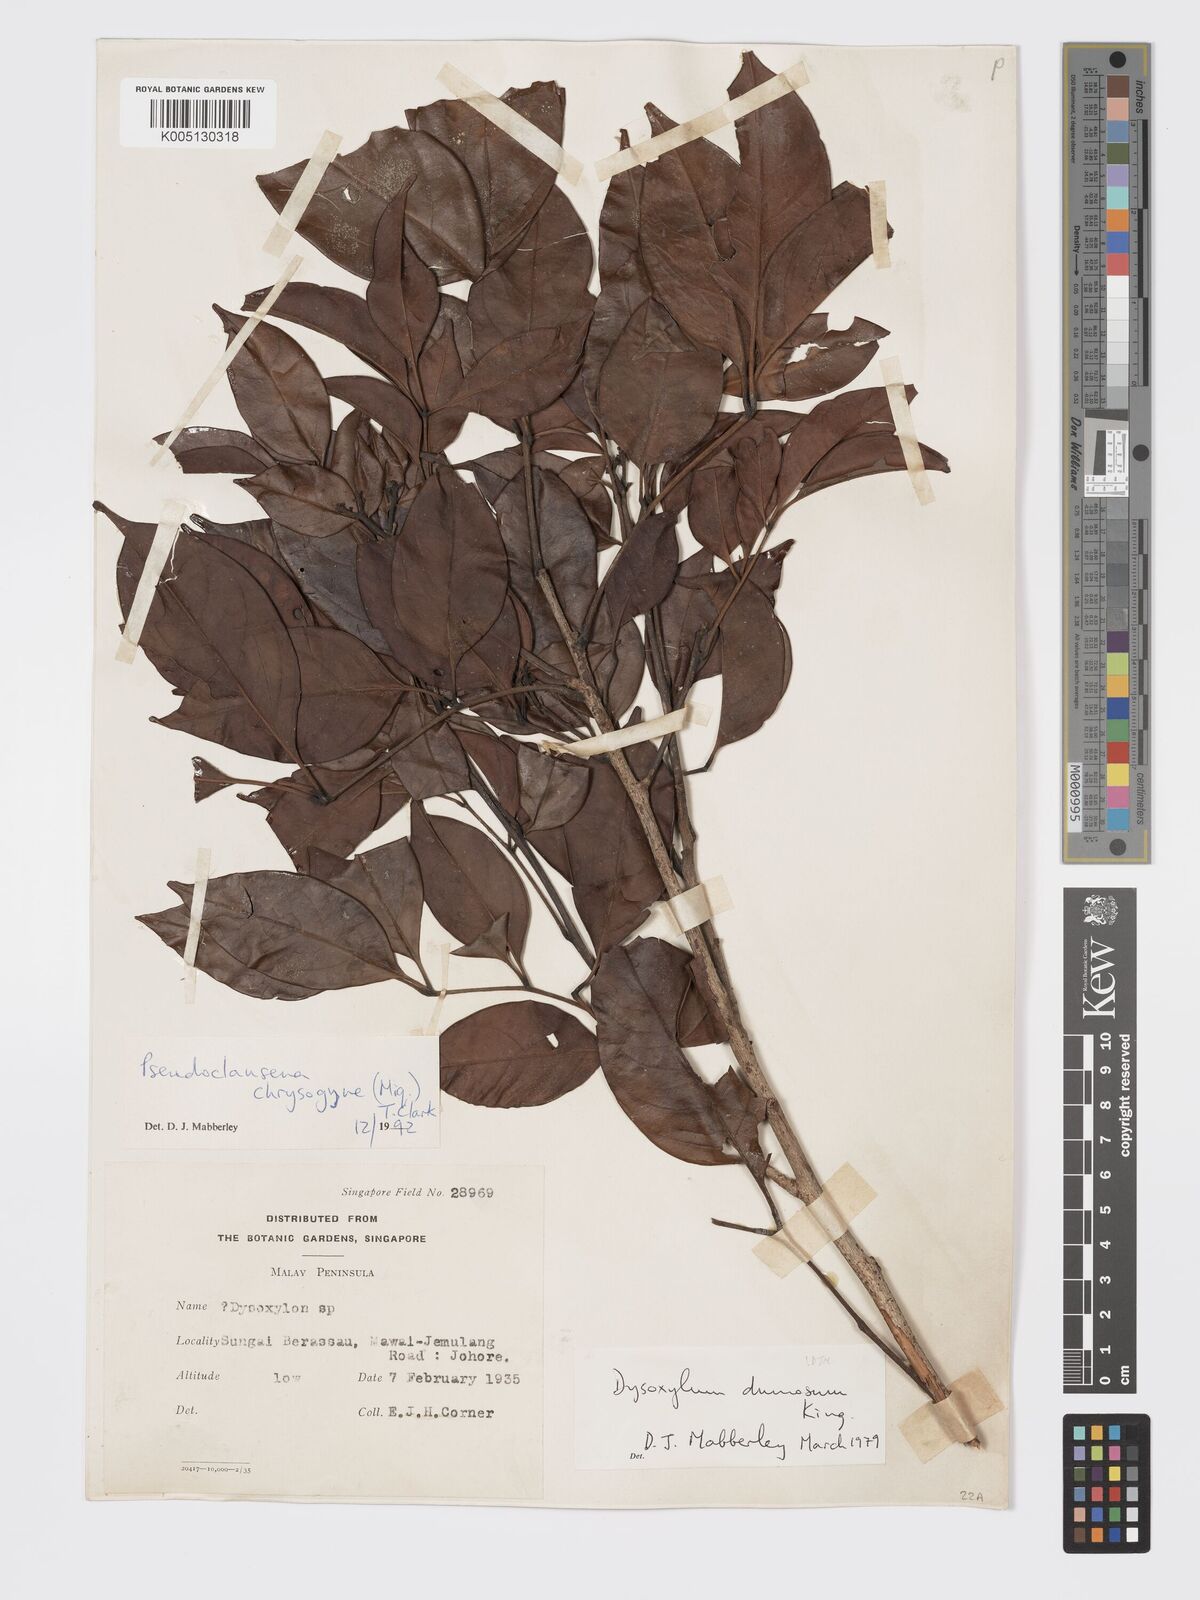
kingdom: Plantae
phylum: Tracheophyta
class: Magnoliopsida
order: Sapindales
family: Meliaceae
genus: Pseudoclausena
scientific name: Pseudoclausena chrysogyne
